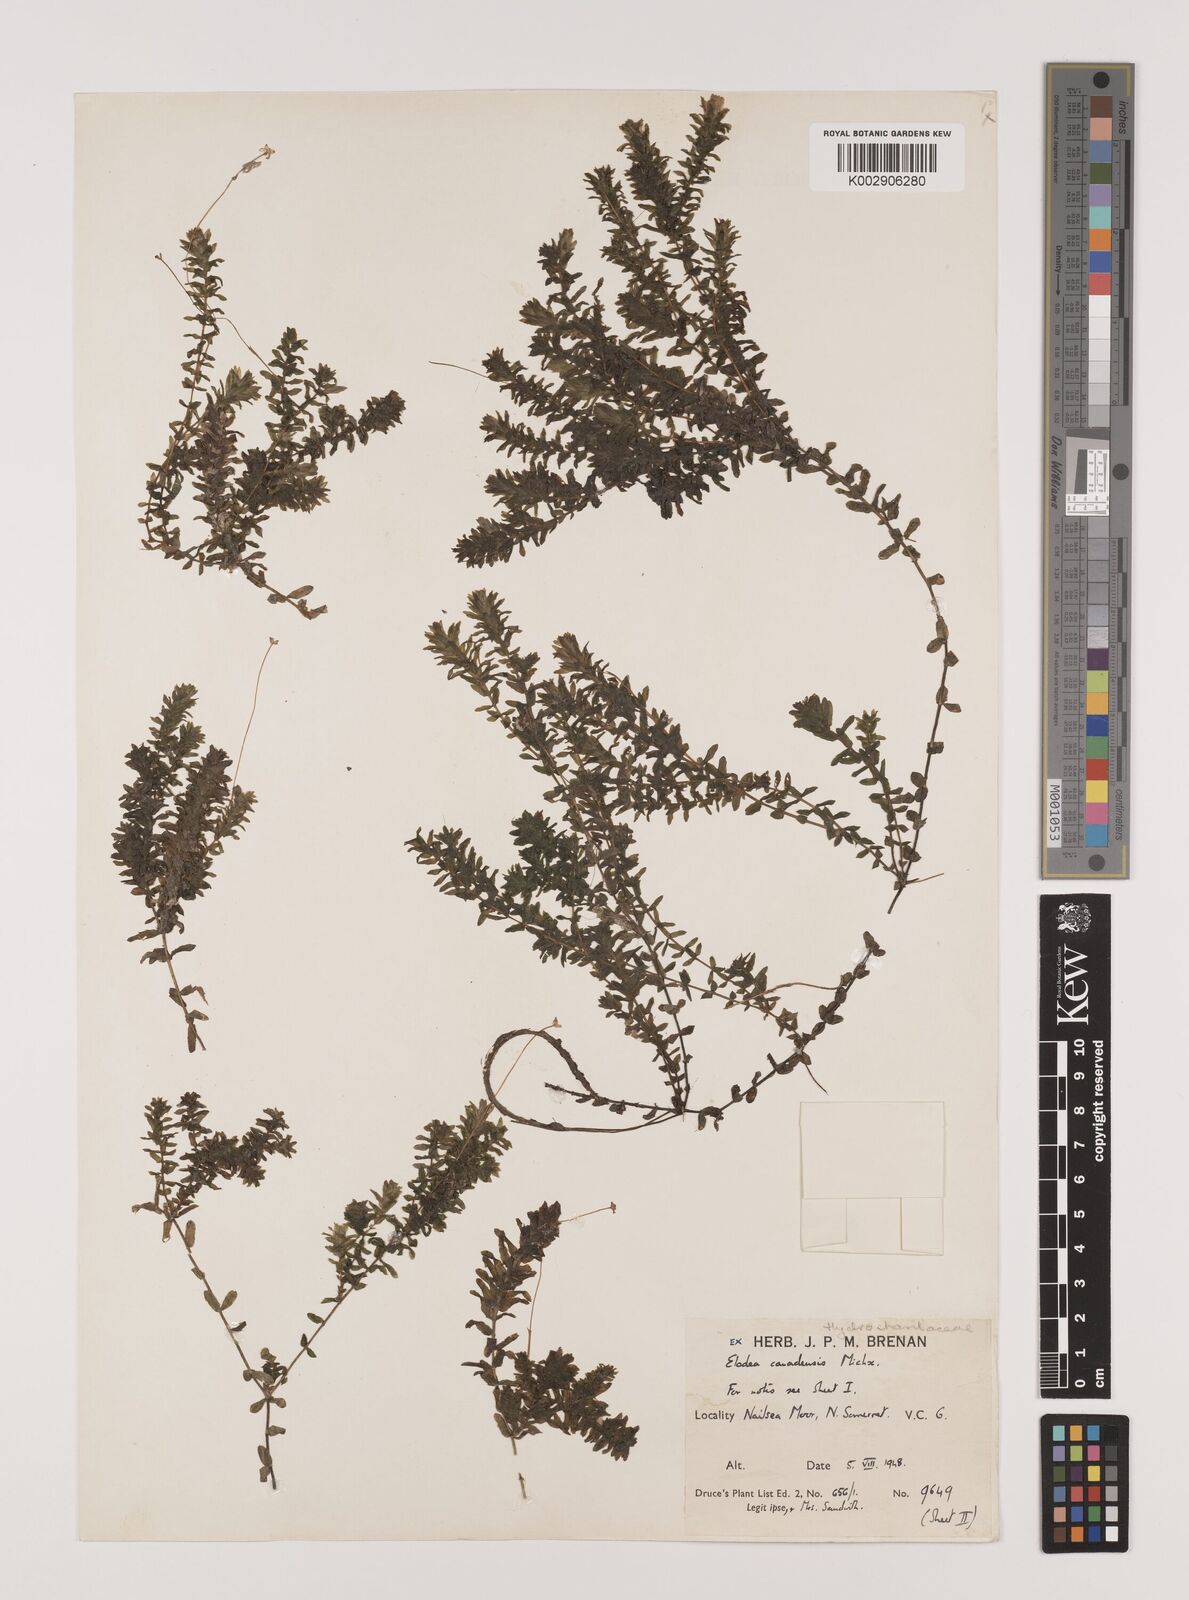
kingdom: Plantae
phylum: Tracheophyta
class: Liliopsida
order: Alismatales
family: Hydrocharitaceae
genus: Elodea
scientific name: Elodea canadensis
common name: Canadian waterweed
